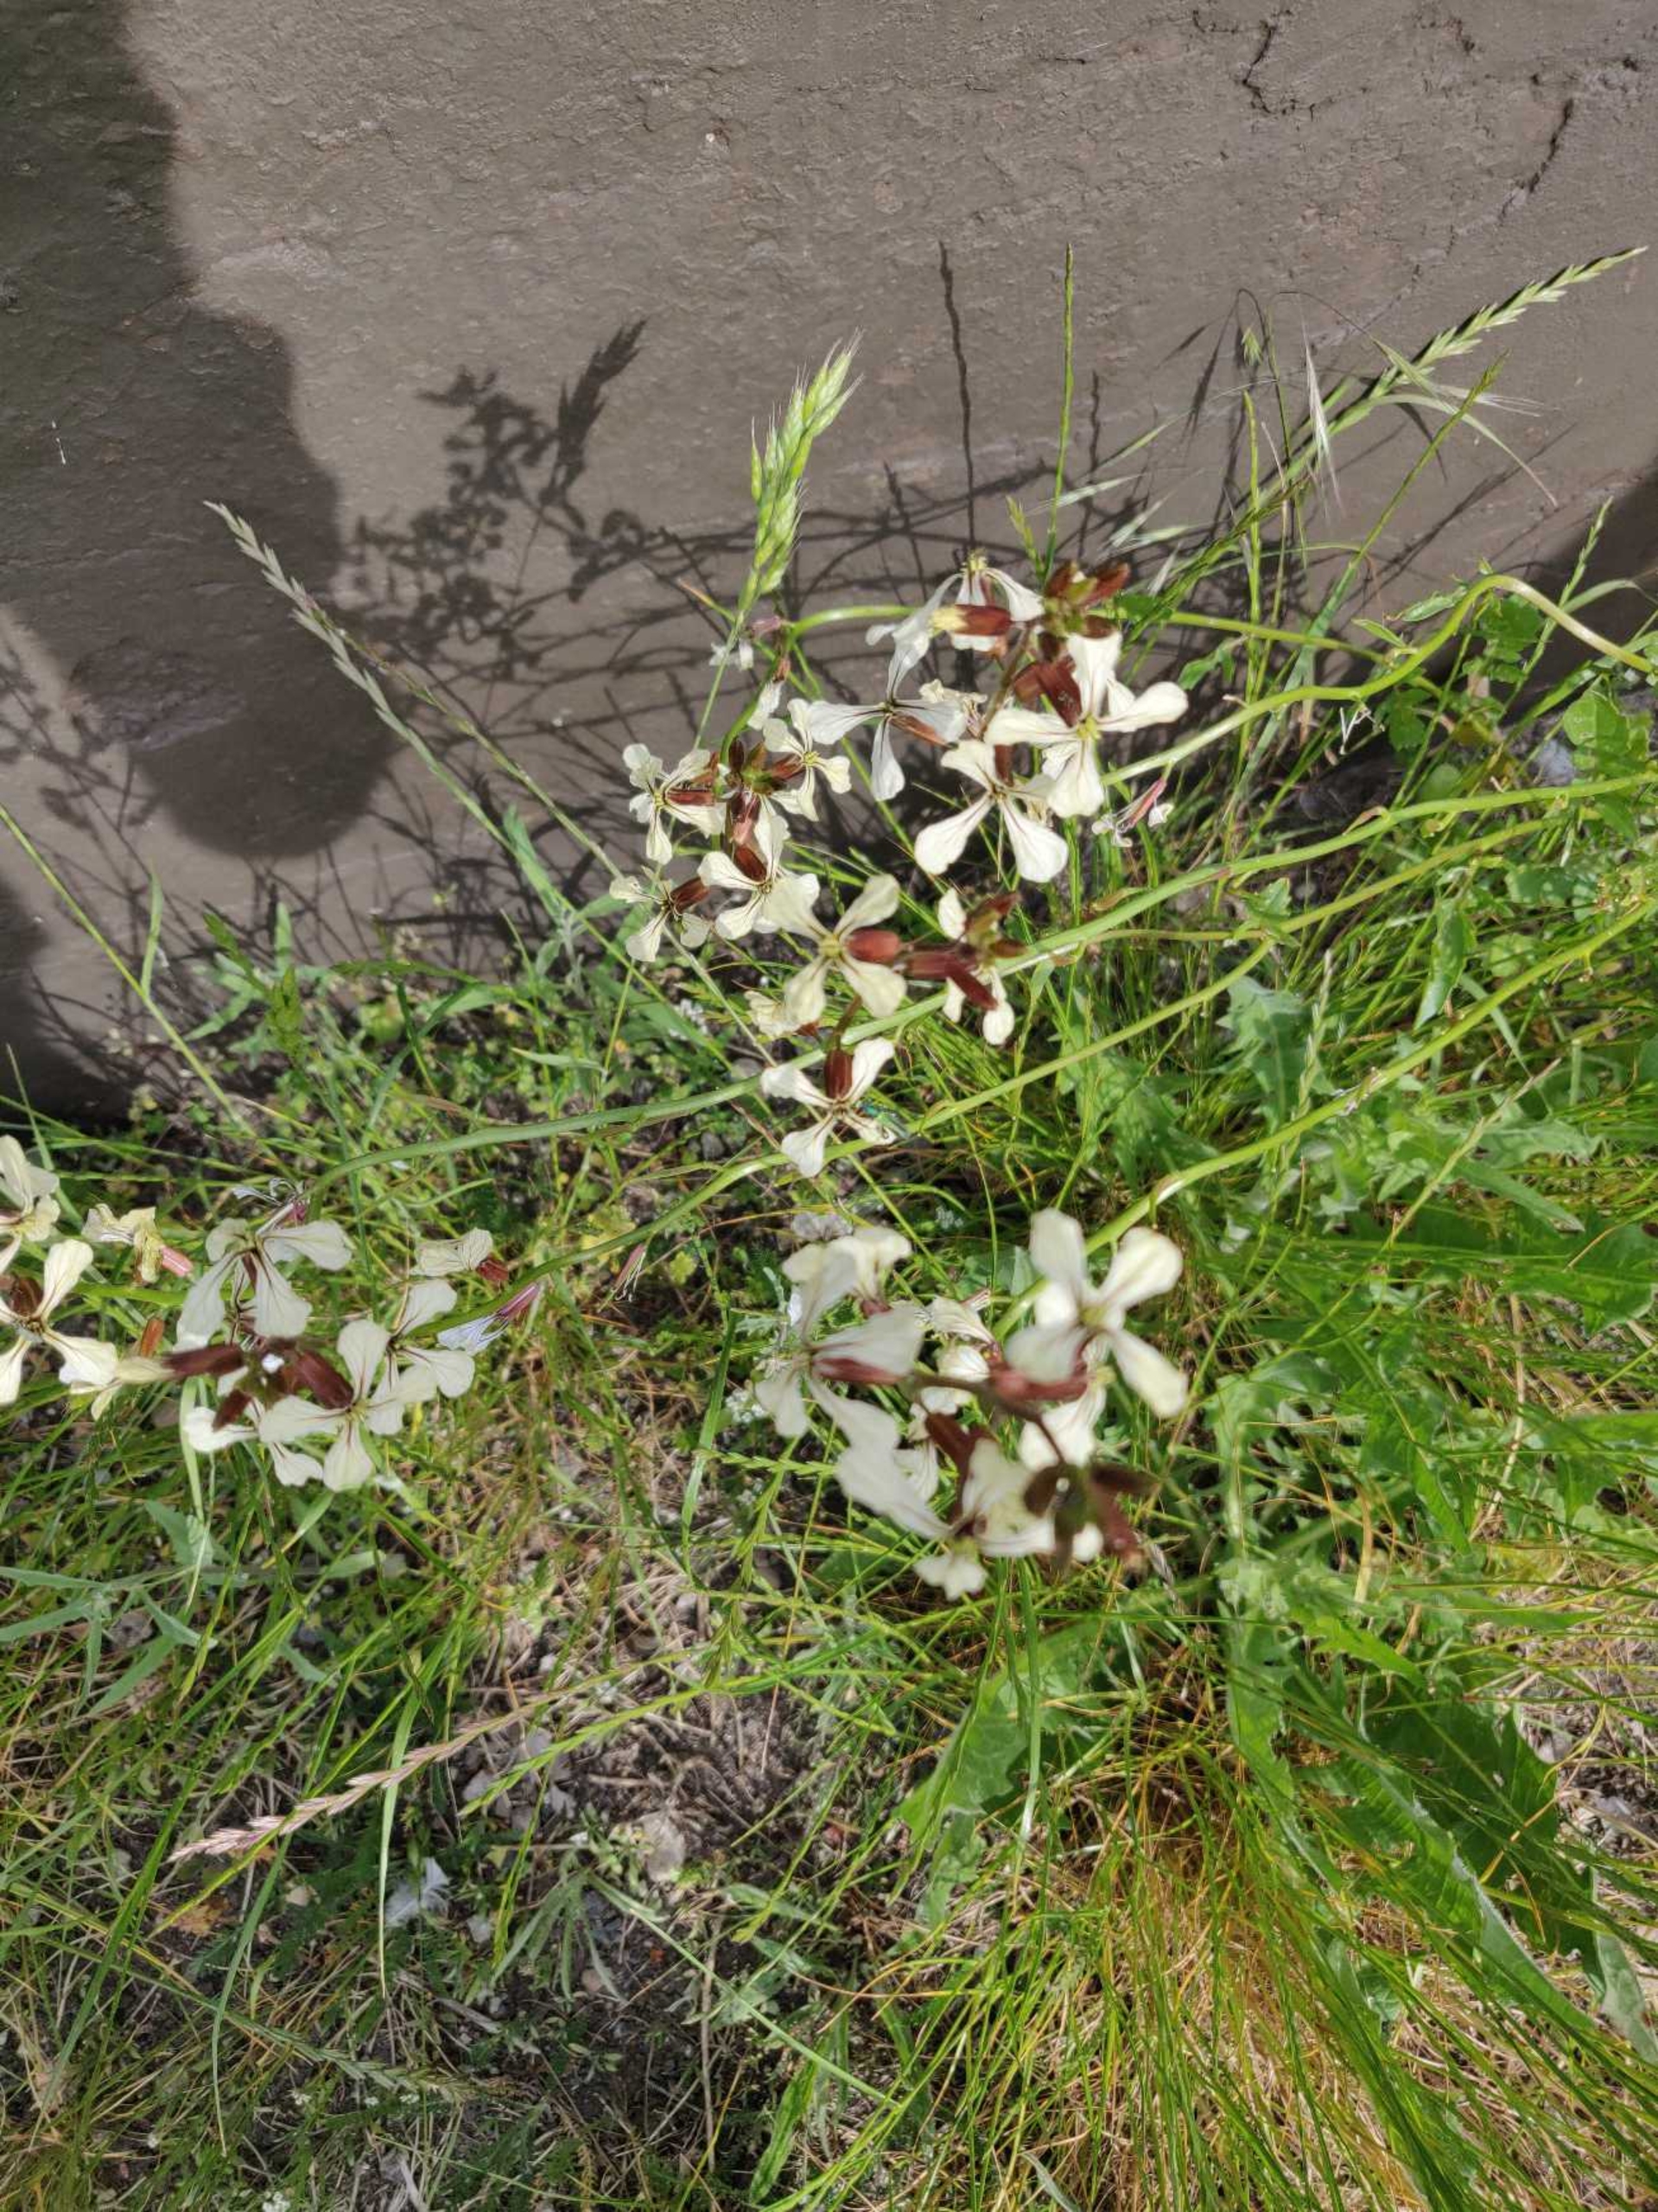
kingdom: Plantae
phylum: Tracheophyta
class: Magnoliopsida
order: Brassicales
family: Brassicaceae
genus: Eruca
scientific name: Eruca vesicaria
